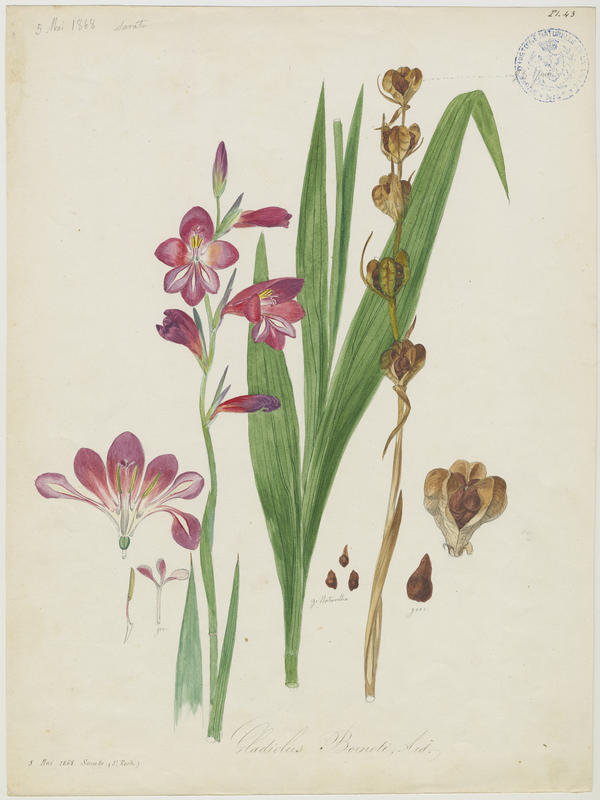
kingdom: Plantae
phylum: Tracheophyta
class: Liliopsida
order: Asparagales
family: Iridaceae
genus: Gladiolus
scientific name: Gladiolus byzantinus
